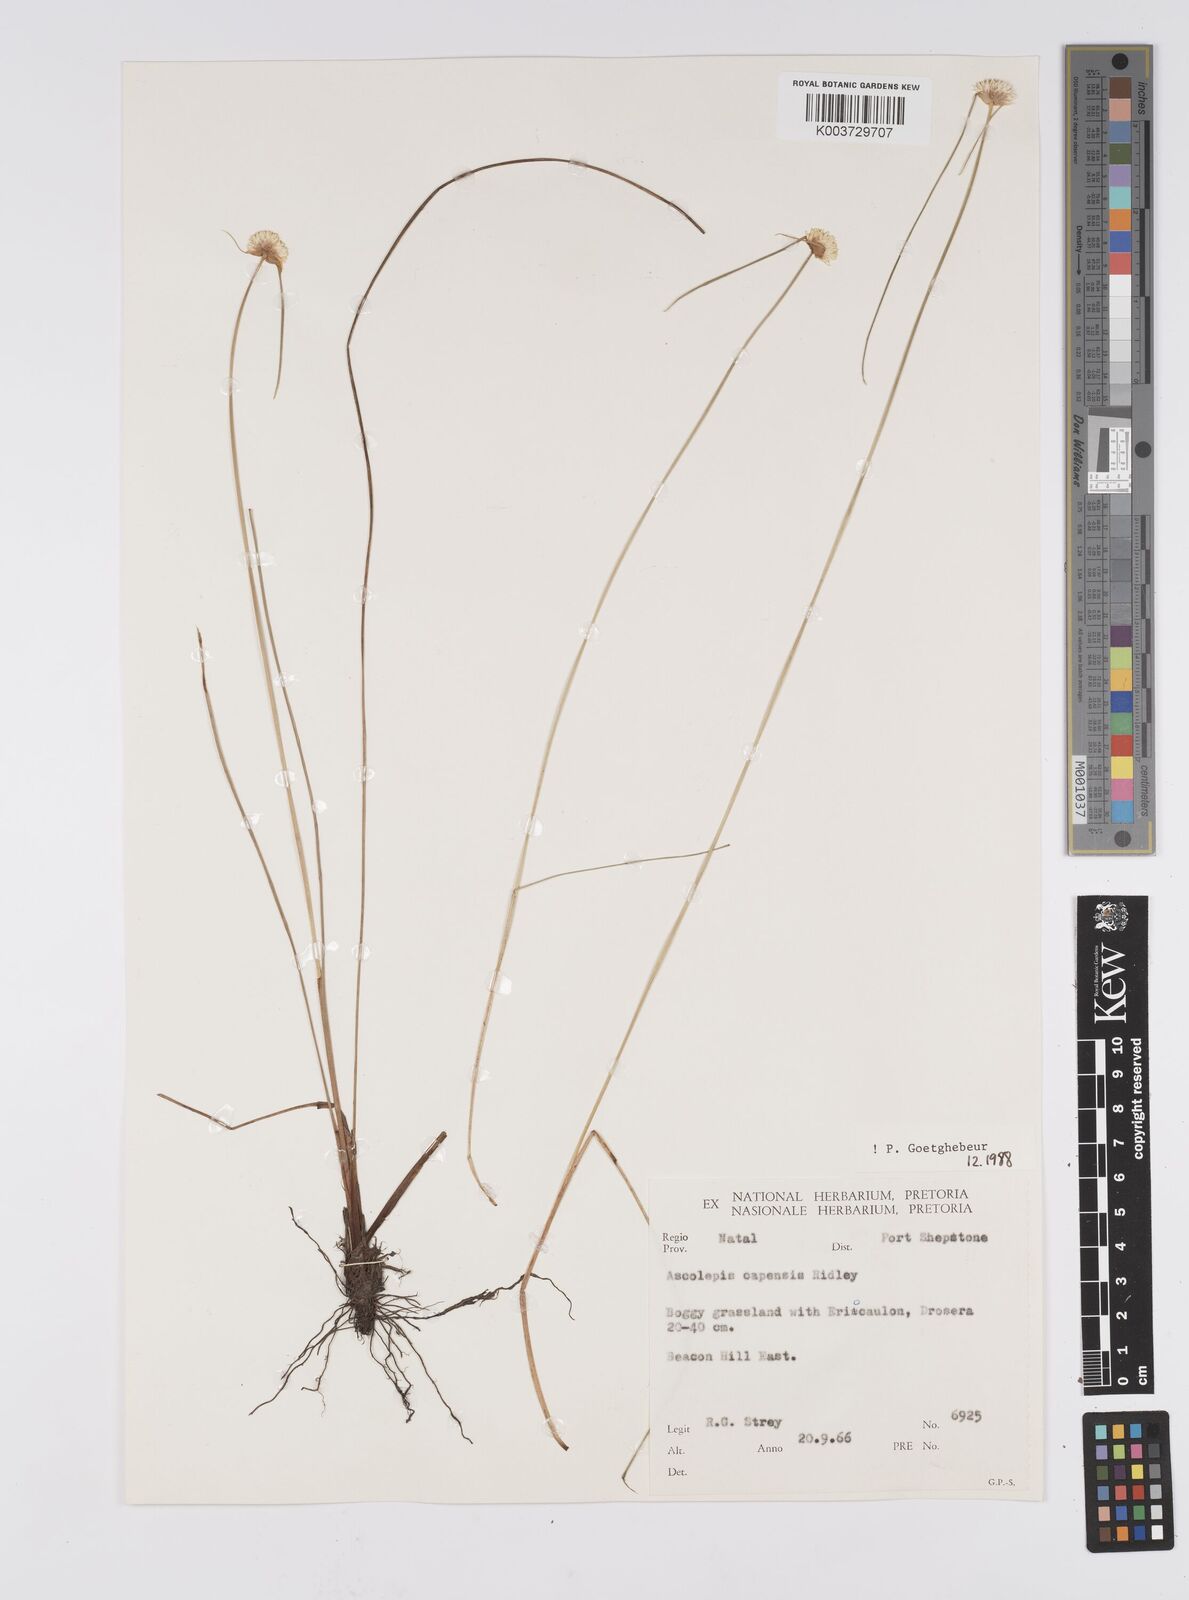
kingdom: Plantae
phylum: Tracheophyta
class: Liliopsida
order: Poales
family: Cyperaceae
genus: Cyperus
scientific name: Cyperus capensis
